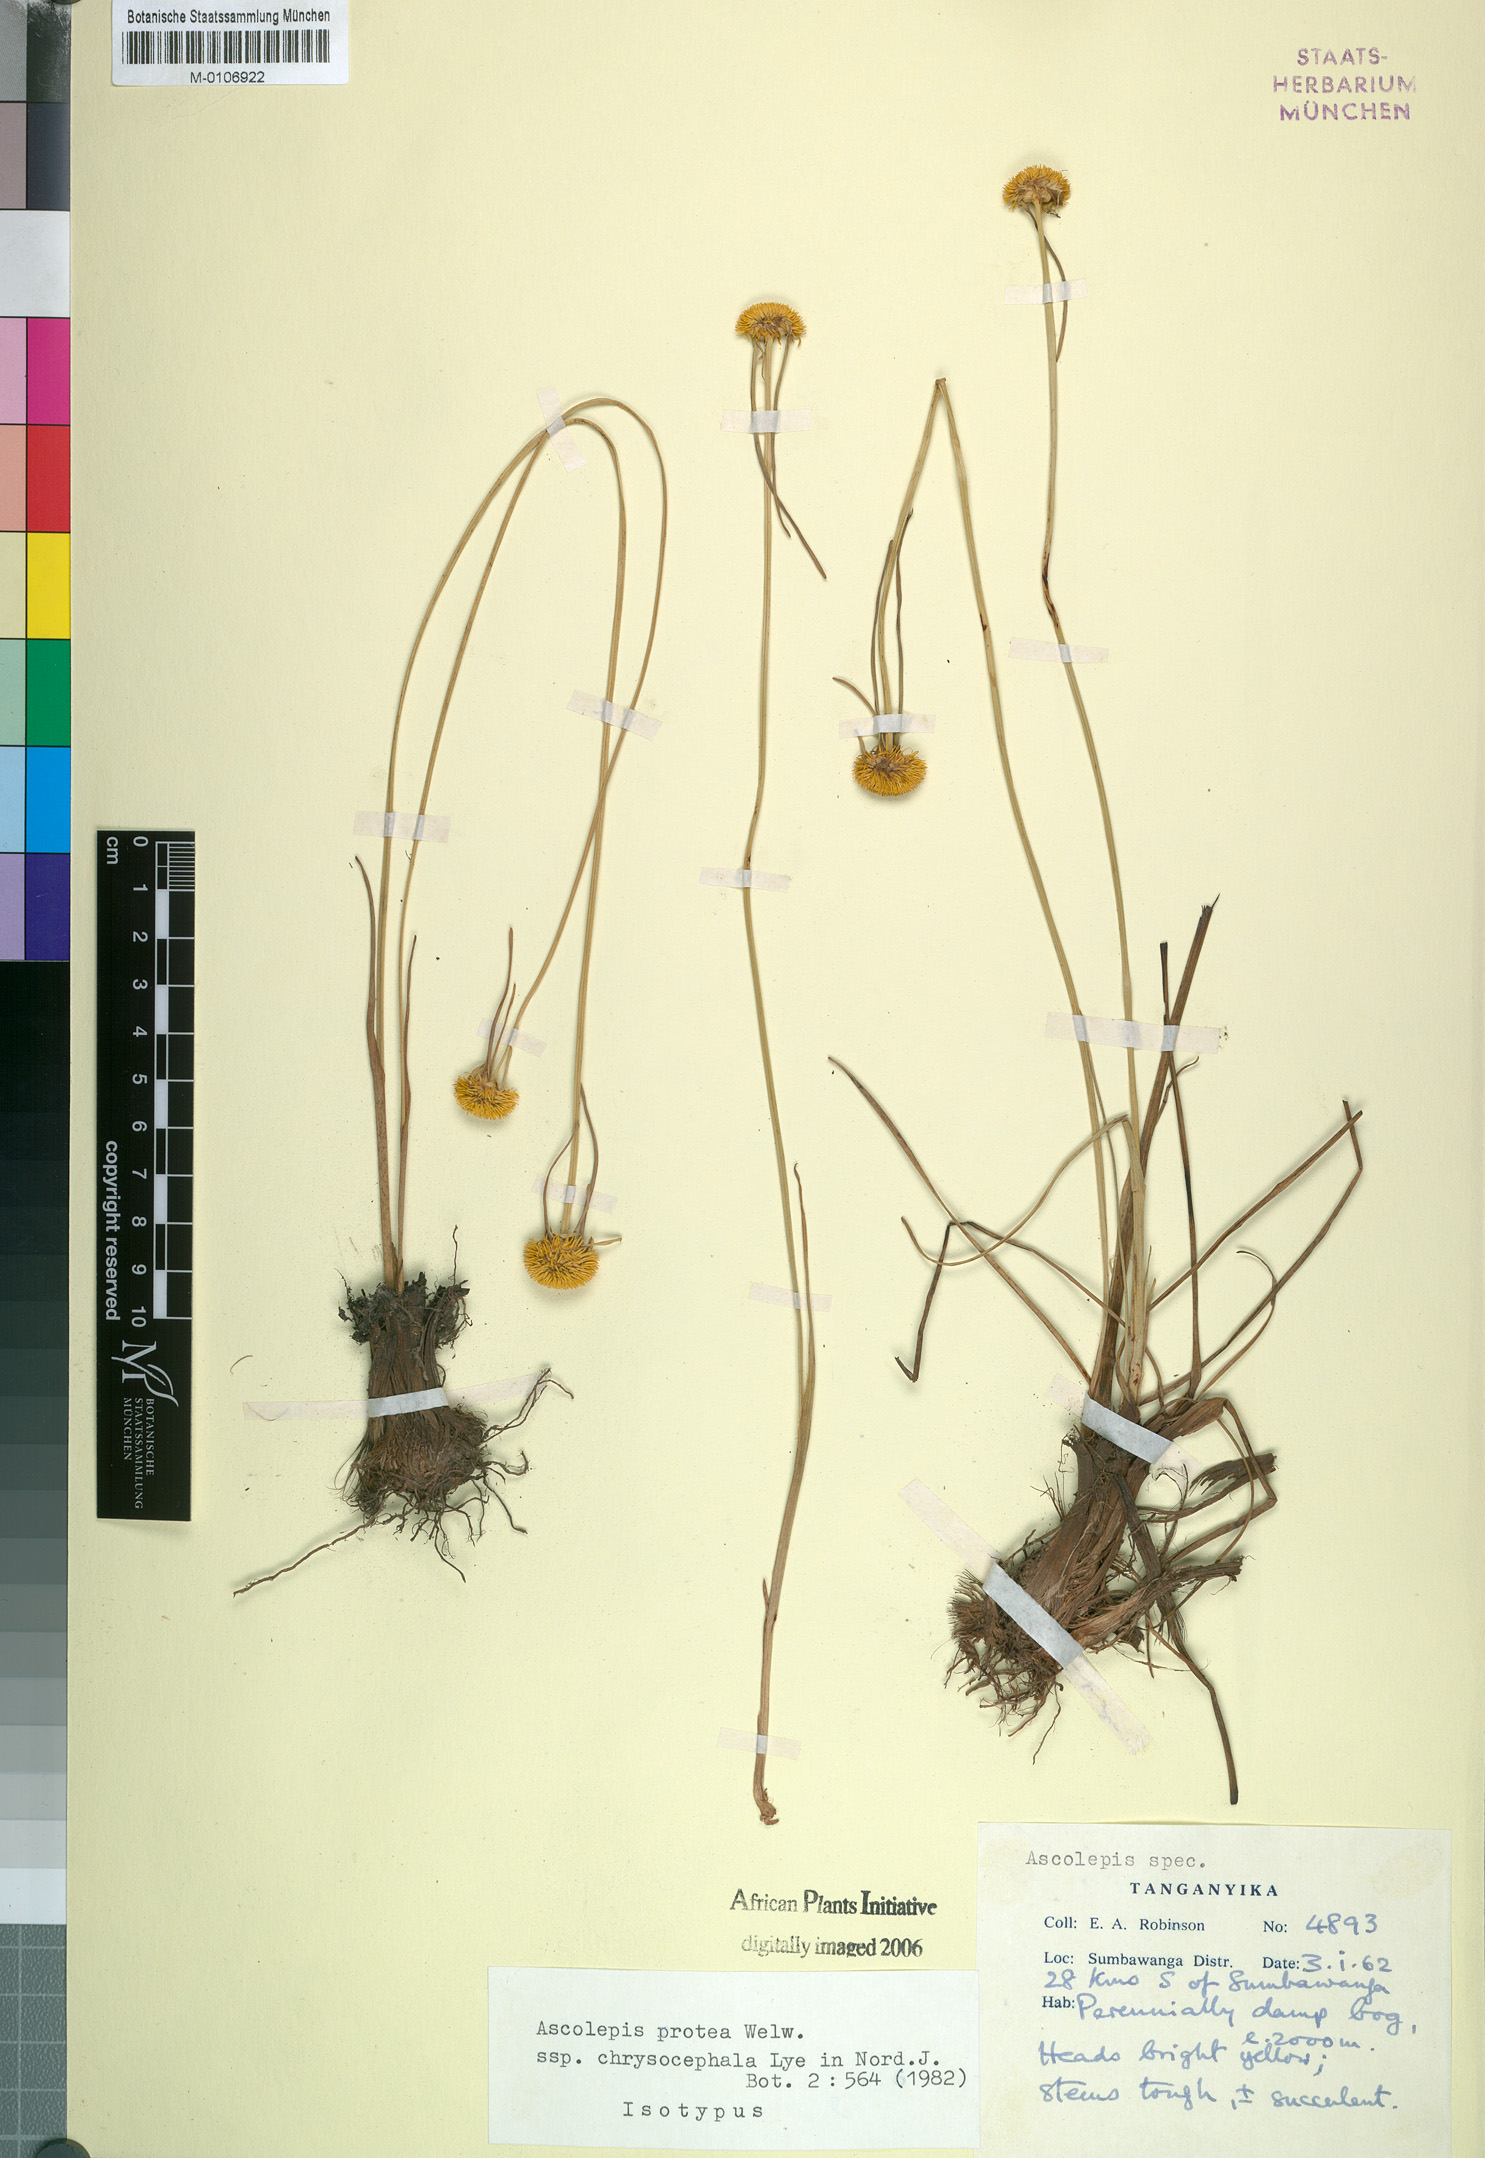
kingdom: Plantae
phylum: Tracheophyta
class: Liliopsida
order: Poales
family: Cyperaceae
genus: Cyperus
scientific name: Cyperus proteus
